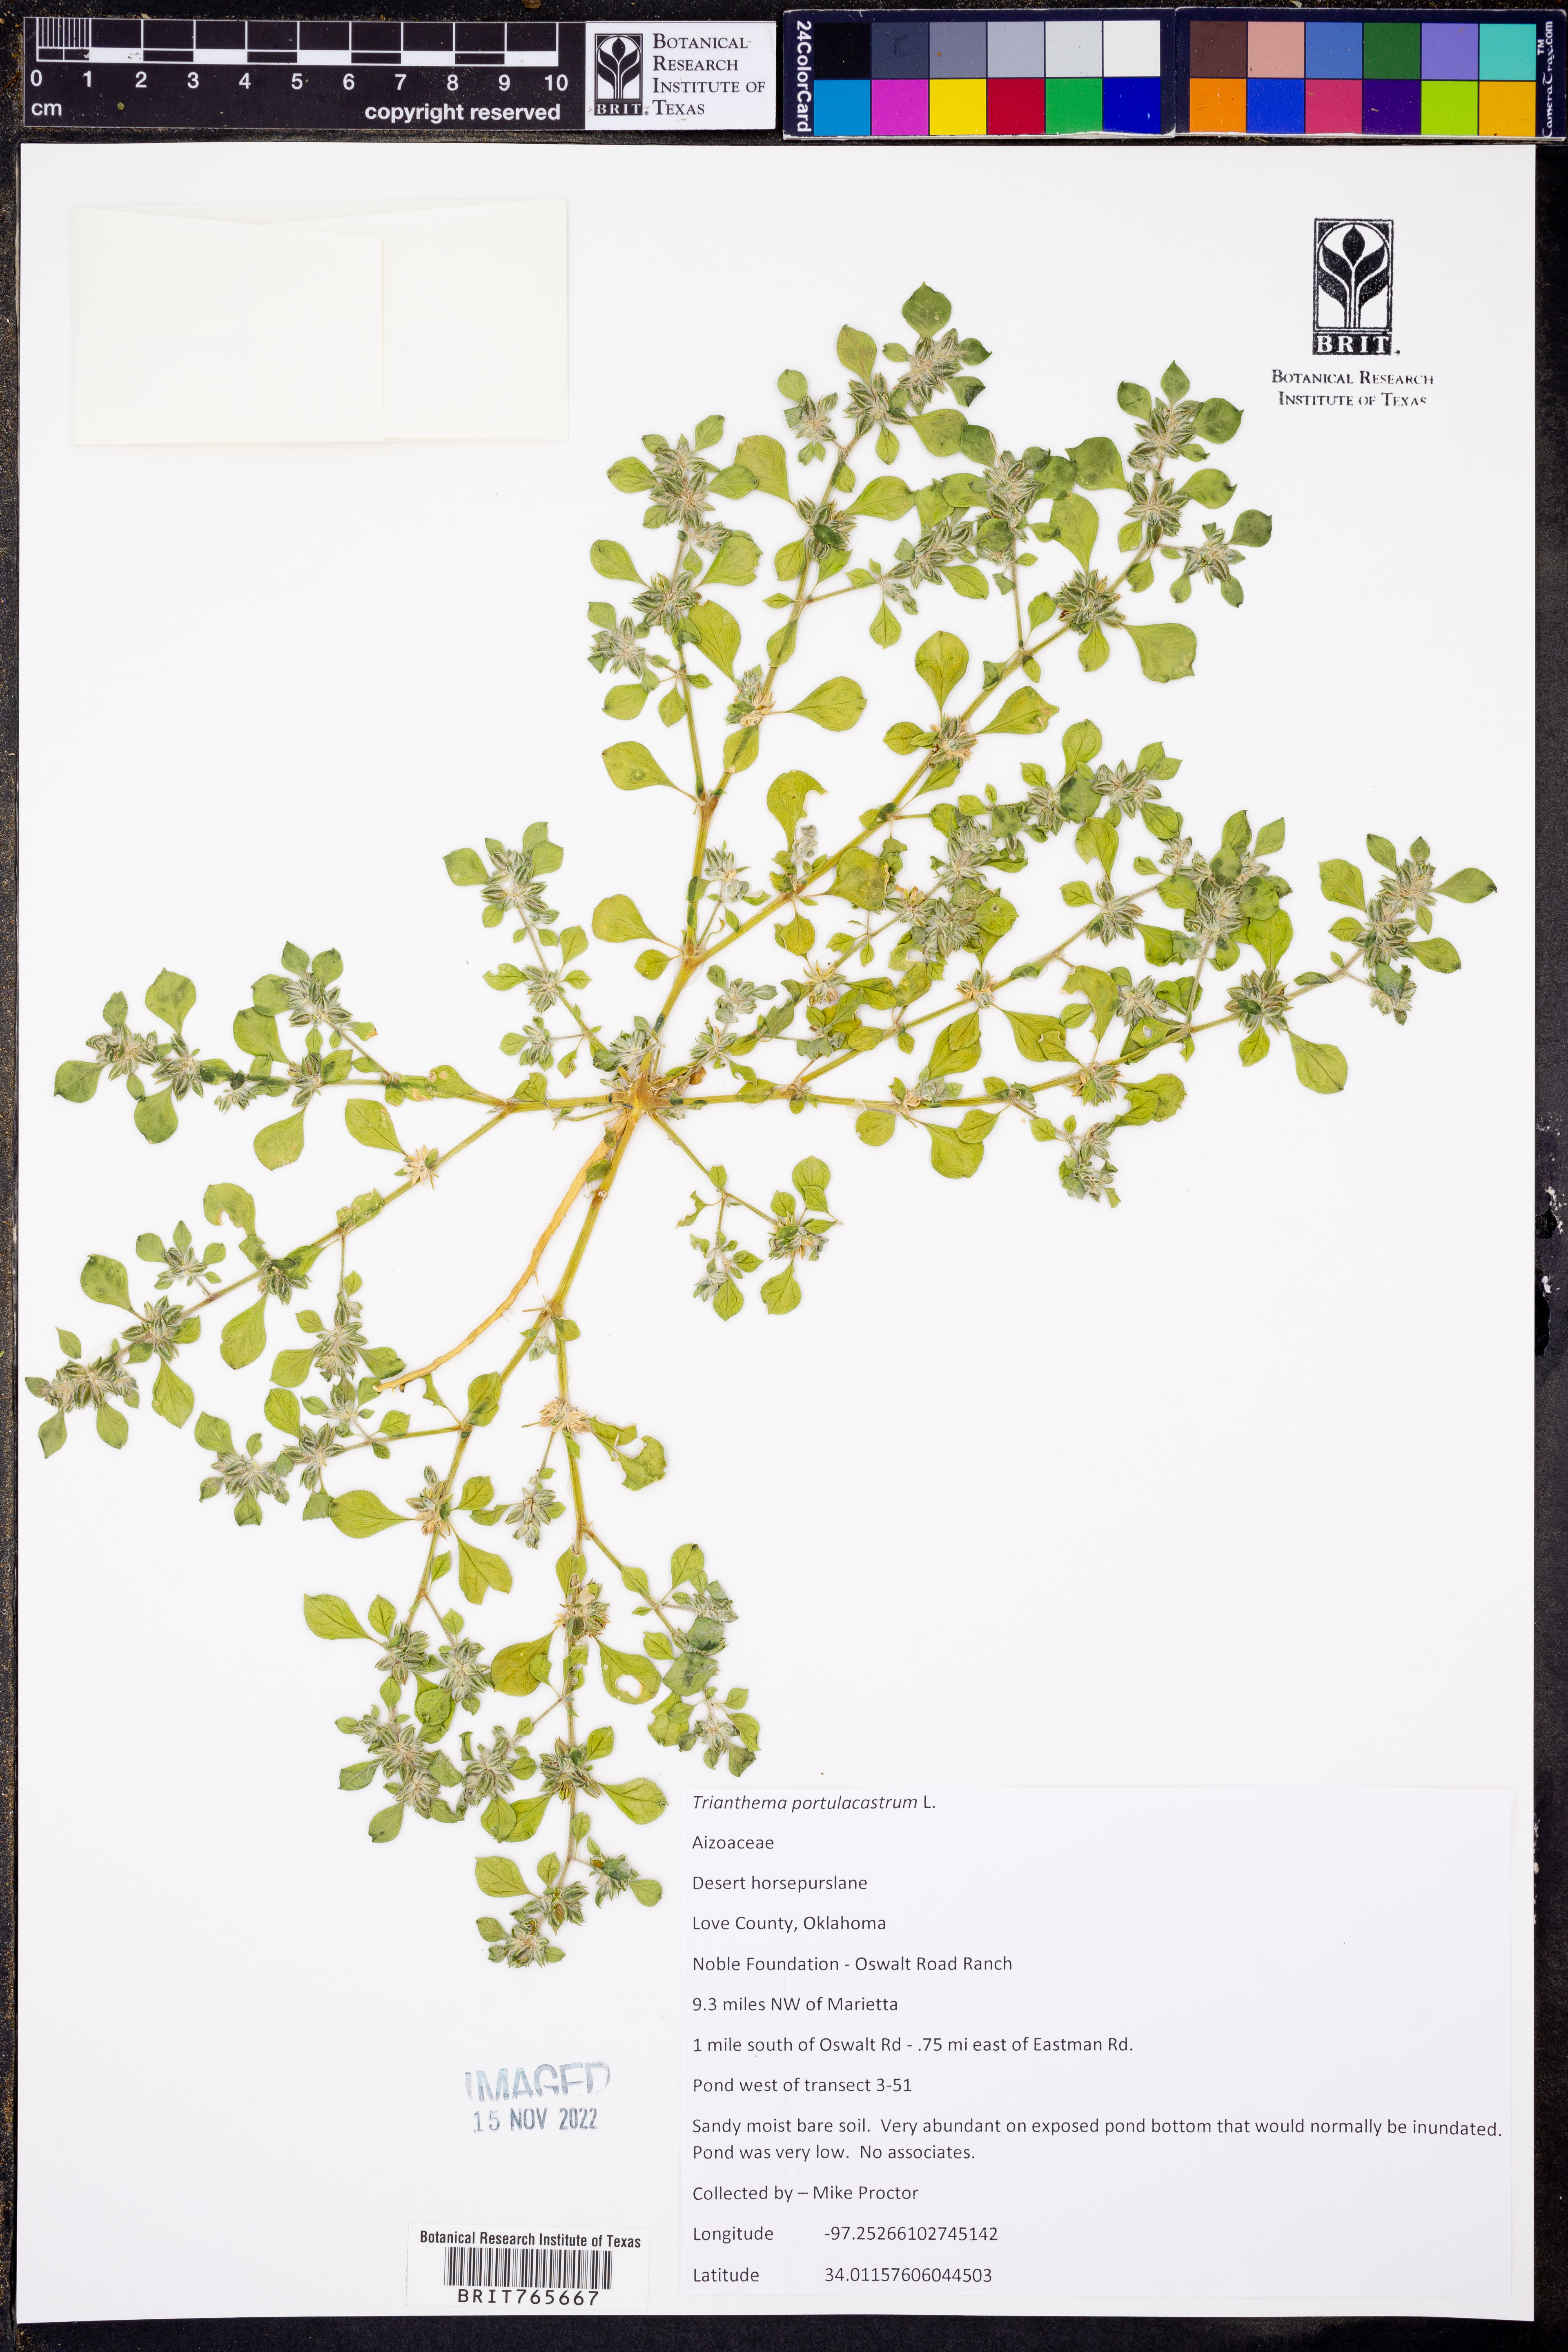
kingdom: Plantae
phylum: Tracheophyta
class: Magnoliopsida
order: Caryophyllales
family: Aizoaceae
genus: Trianthema
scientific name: Trianthema portulacastrum
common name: Desert horsepurslane
